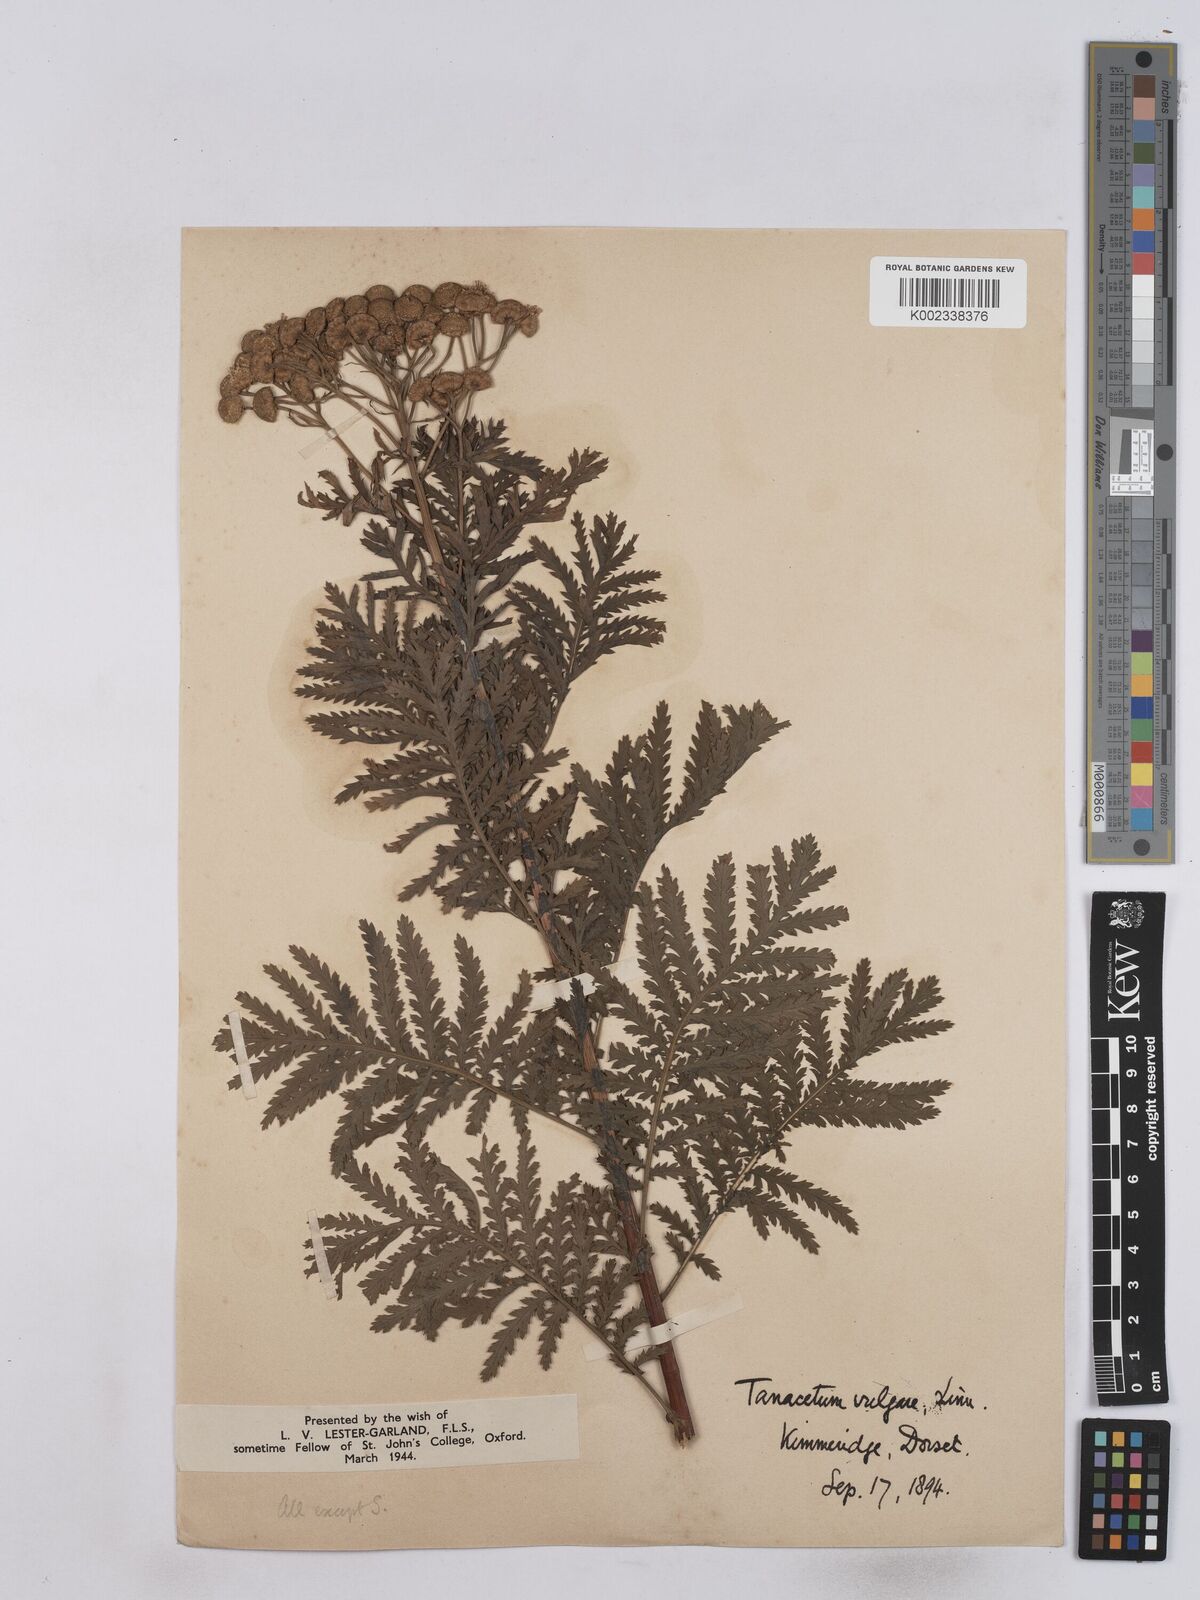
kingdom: Plantae
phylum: Tracheophyta
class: Magnoliopsida
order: Asterales
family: Asteraceae
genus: Tanacetum
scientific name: Tanacetum vulgare
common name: Common tansy
